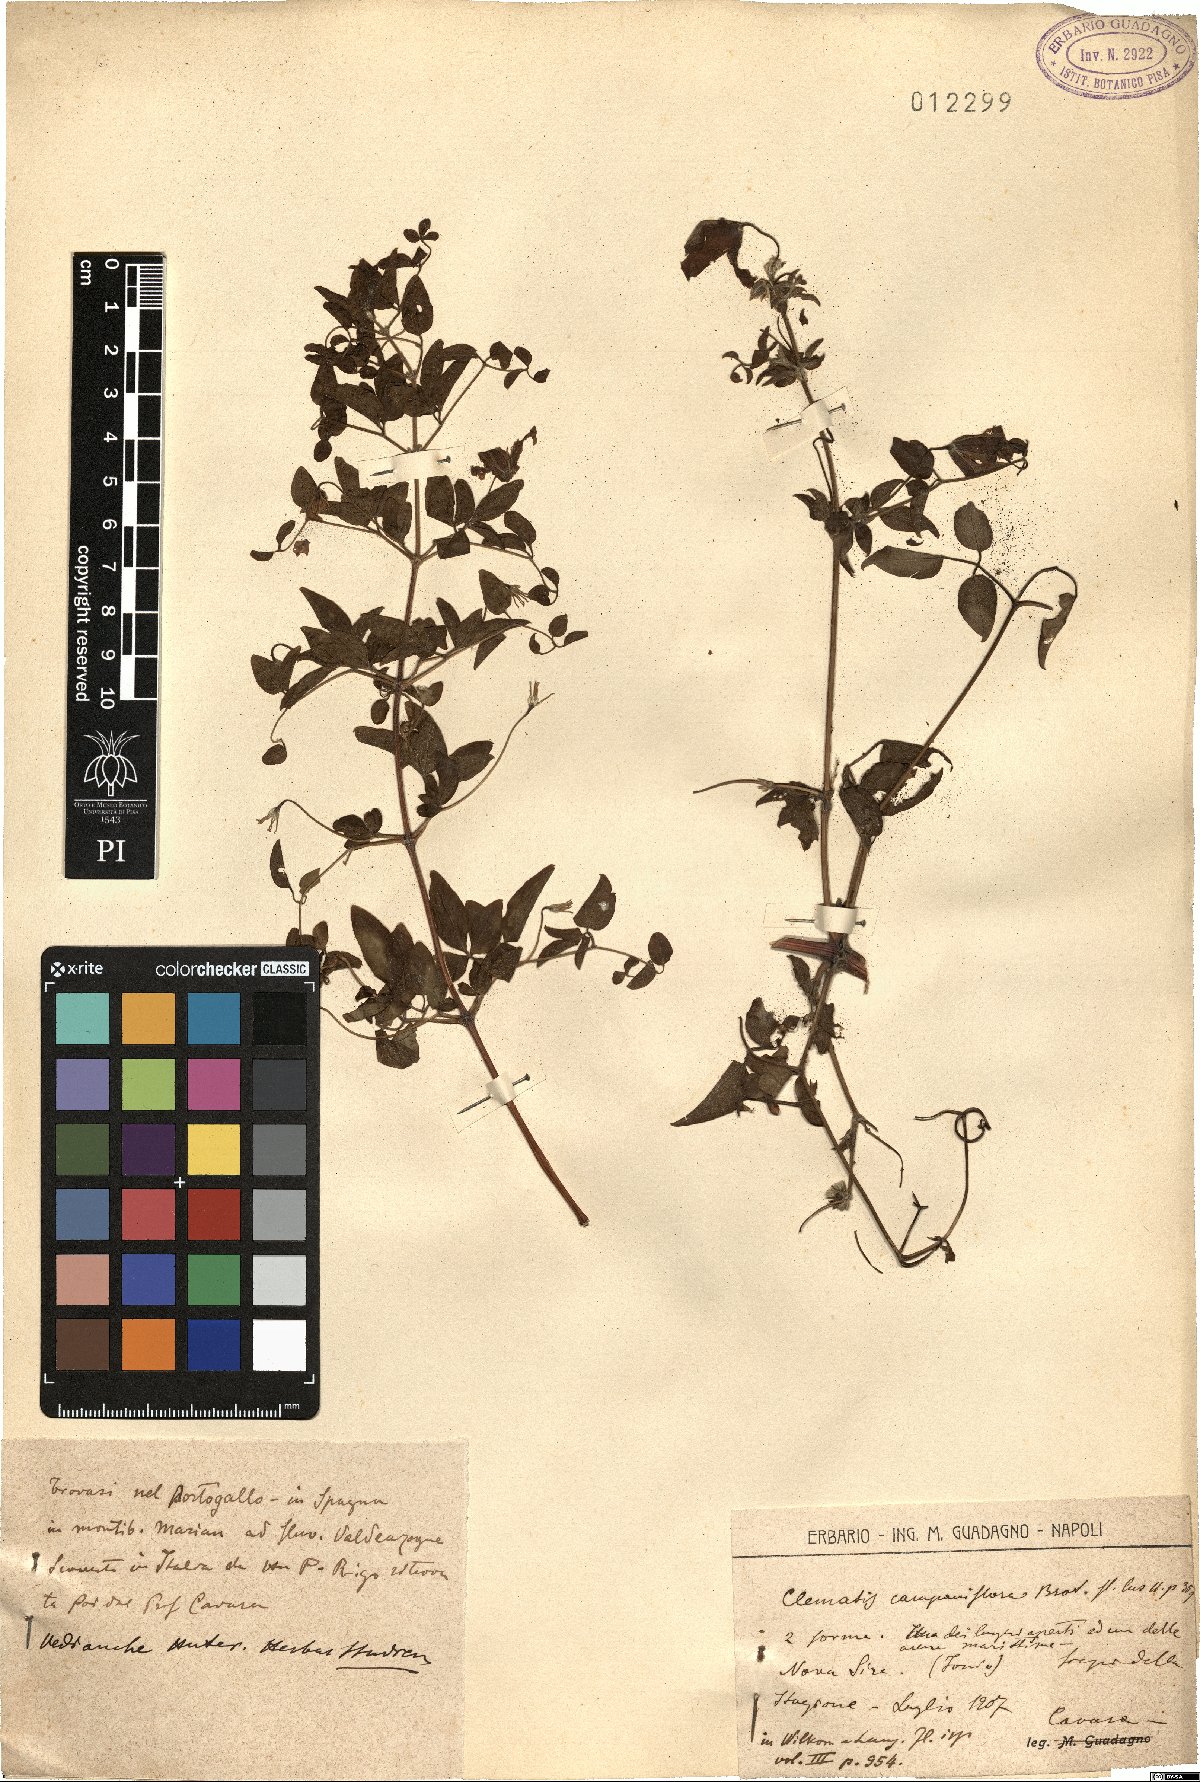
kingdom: Plantae
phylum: Tracheophyta
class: Magnoliopsida
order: Ranunculales
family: Ranunculaceae
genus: Clematis
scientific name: Clematis viticella
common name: Purple clematis
